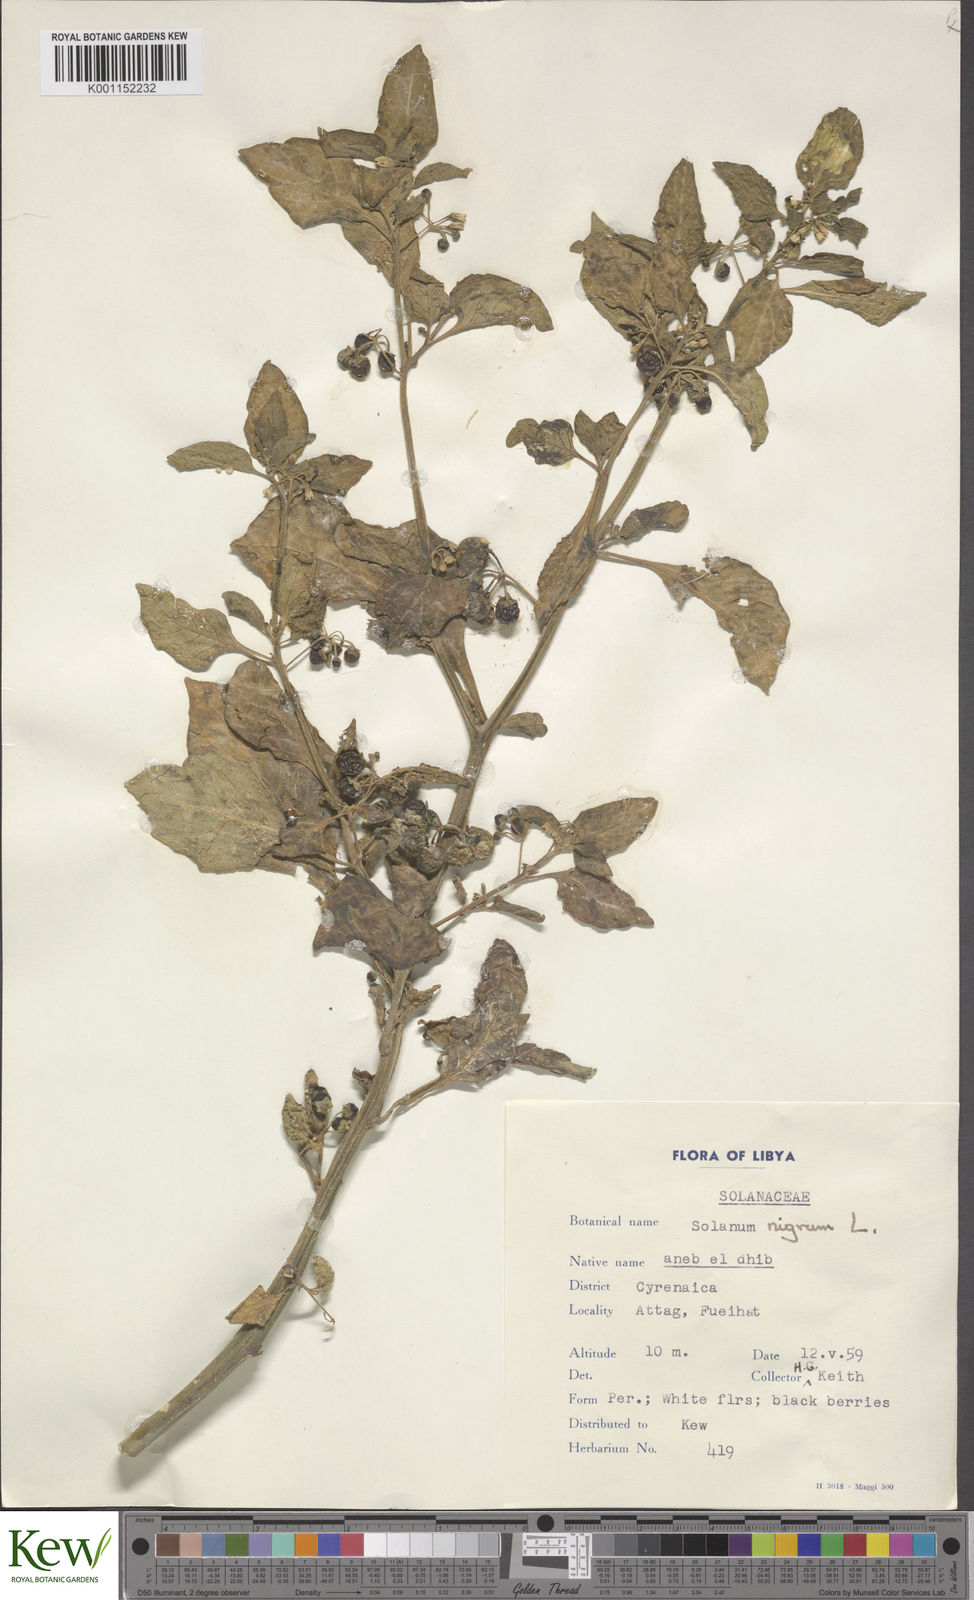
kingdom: Plantae
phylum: Tracheophyta
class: Magnoliopsida
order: Solanales
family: Solanaceae
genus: Solanum
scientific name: Solanum nigrum
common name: Black nightshade
